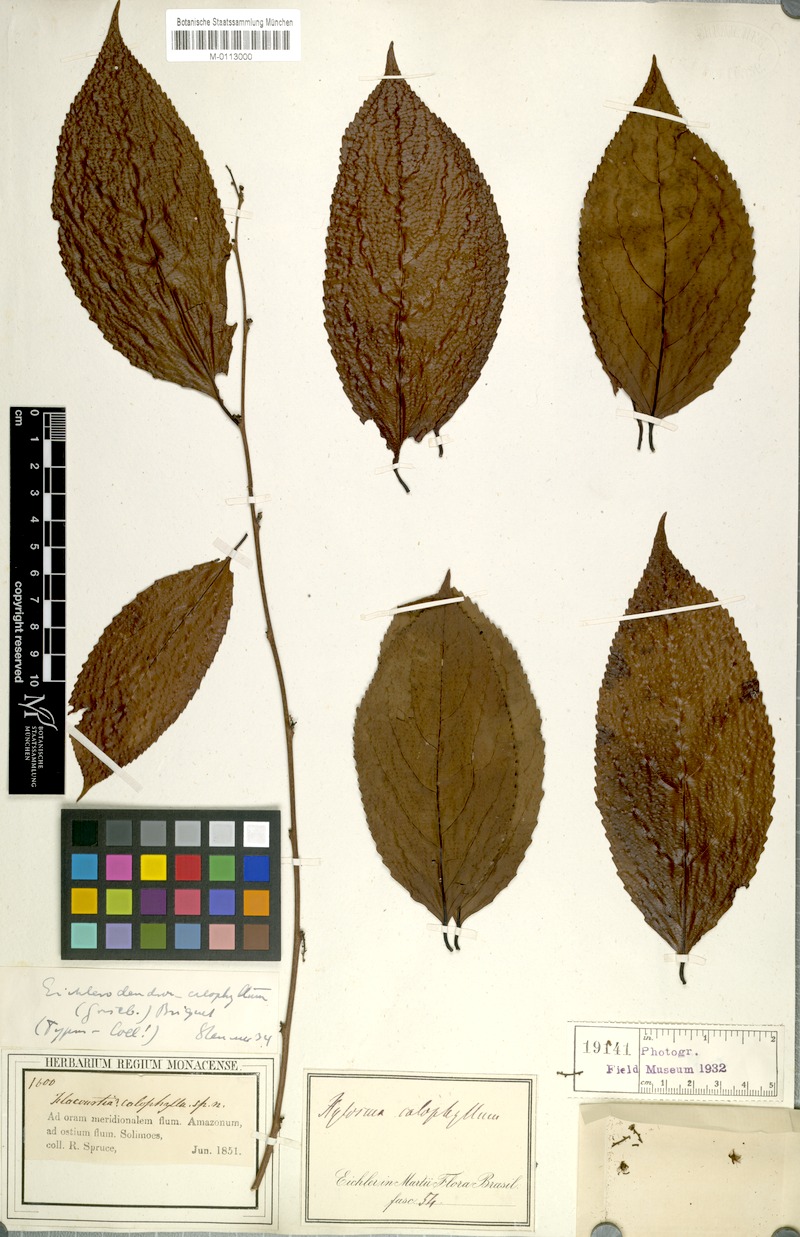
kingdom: Plantae
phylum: Tracheophyta
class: Magnoliopsida
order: Malpighiales
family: Salicaceae
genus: Xylosma
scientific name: Xylosma intermedia
